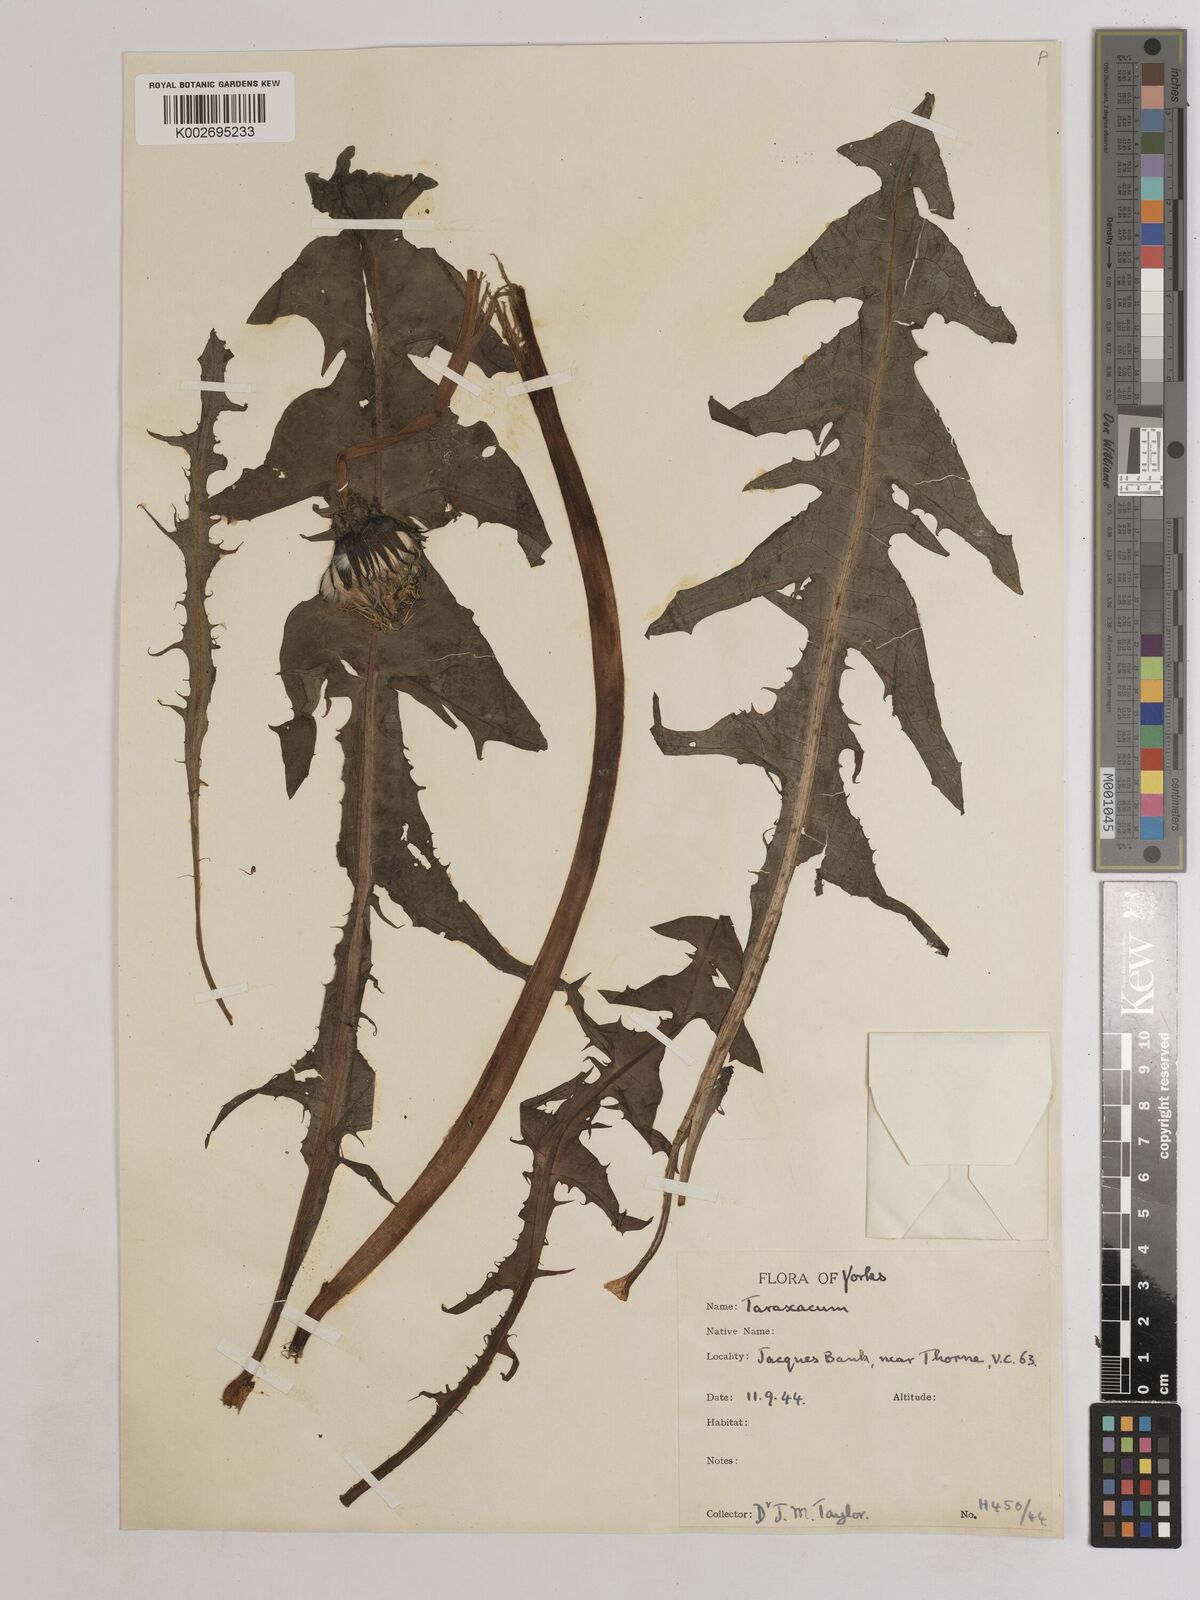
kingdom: Plantae
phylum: Tracheophyta
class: Magnoliopsida
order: Asterales
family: Asteraceae
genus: Taraxacum
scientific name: Taraxacum officinale
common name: Common dandelion
